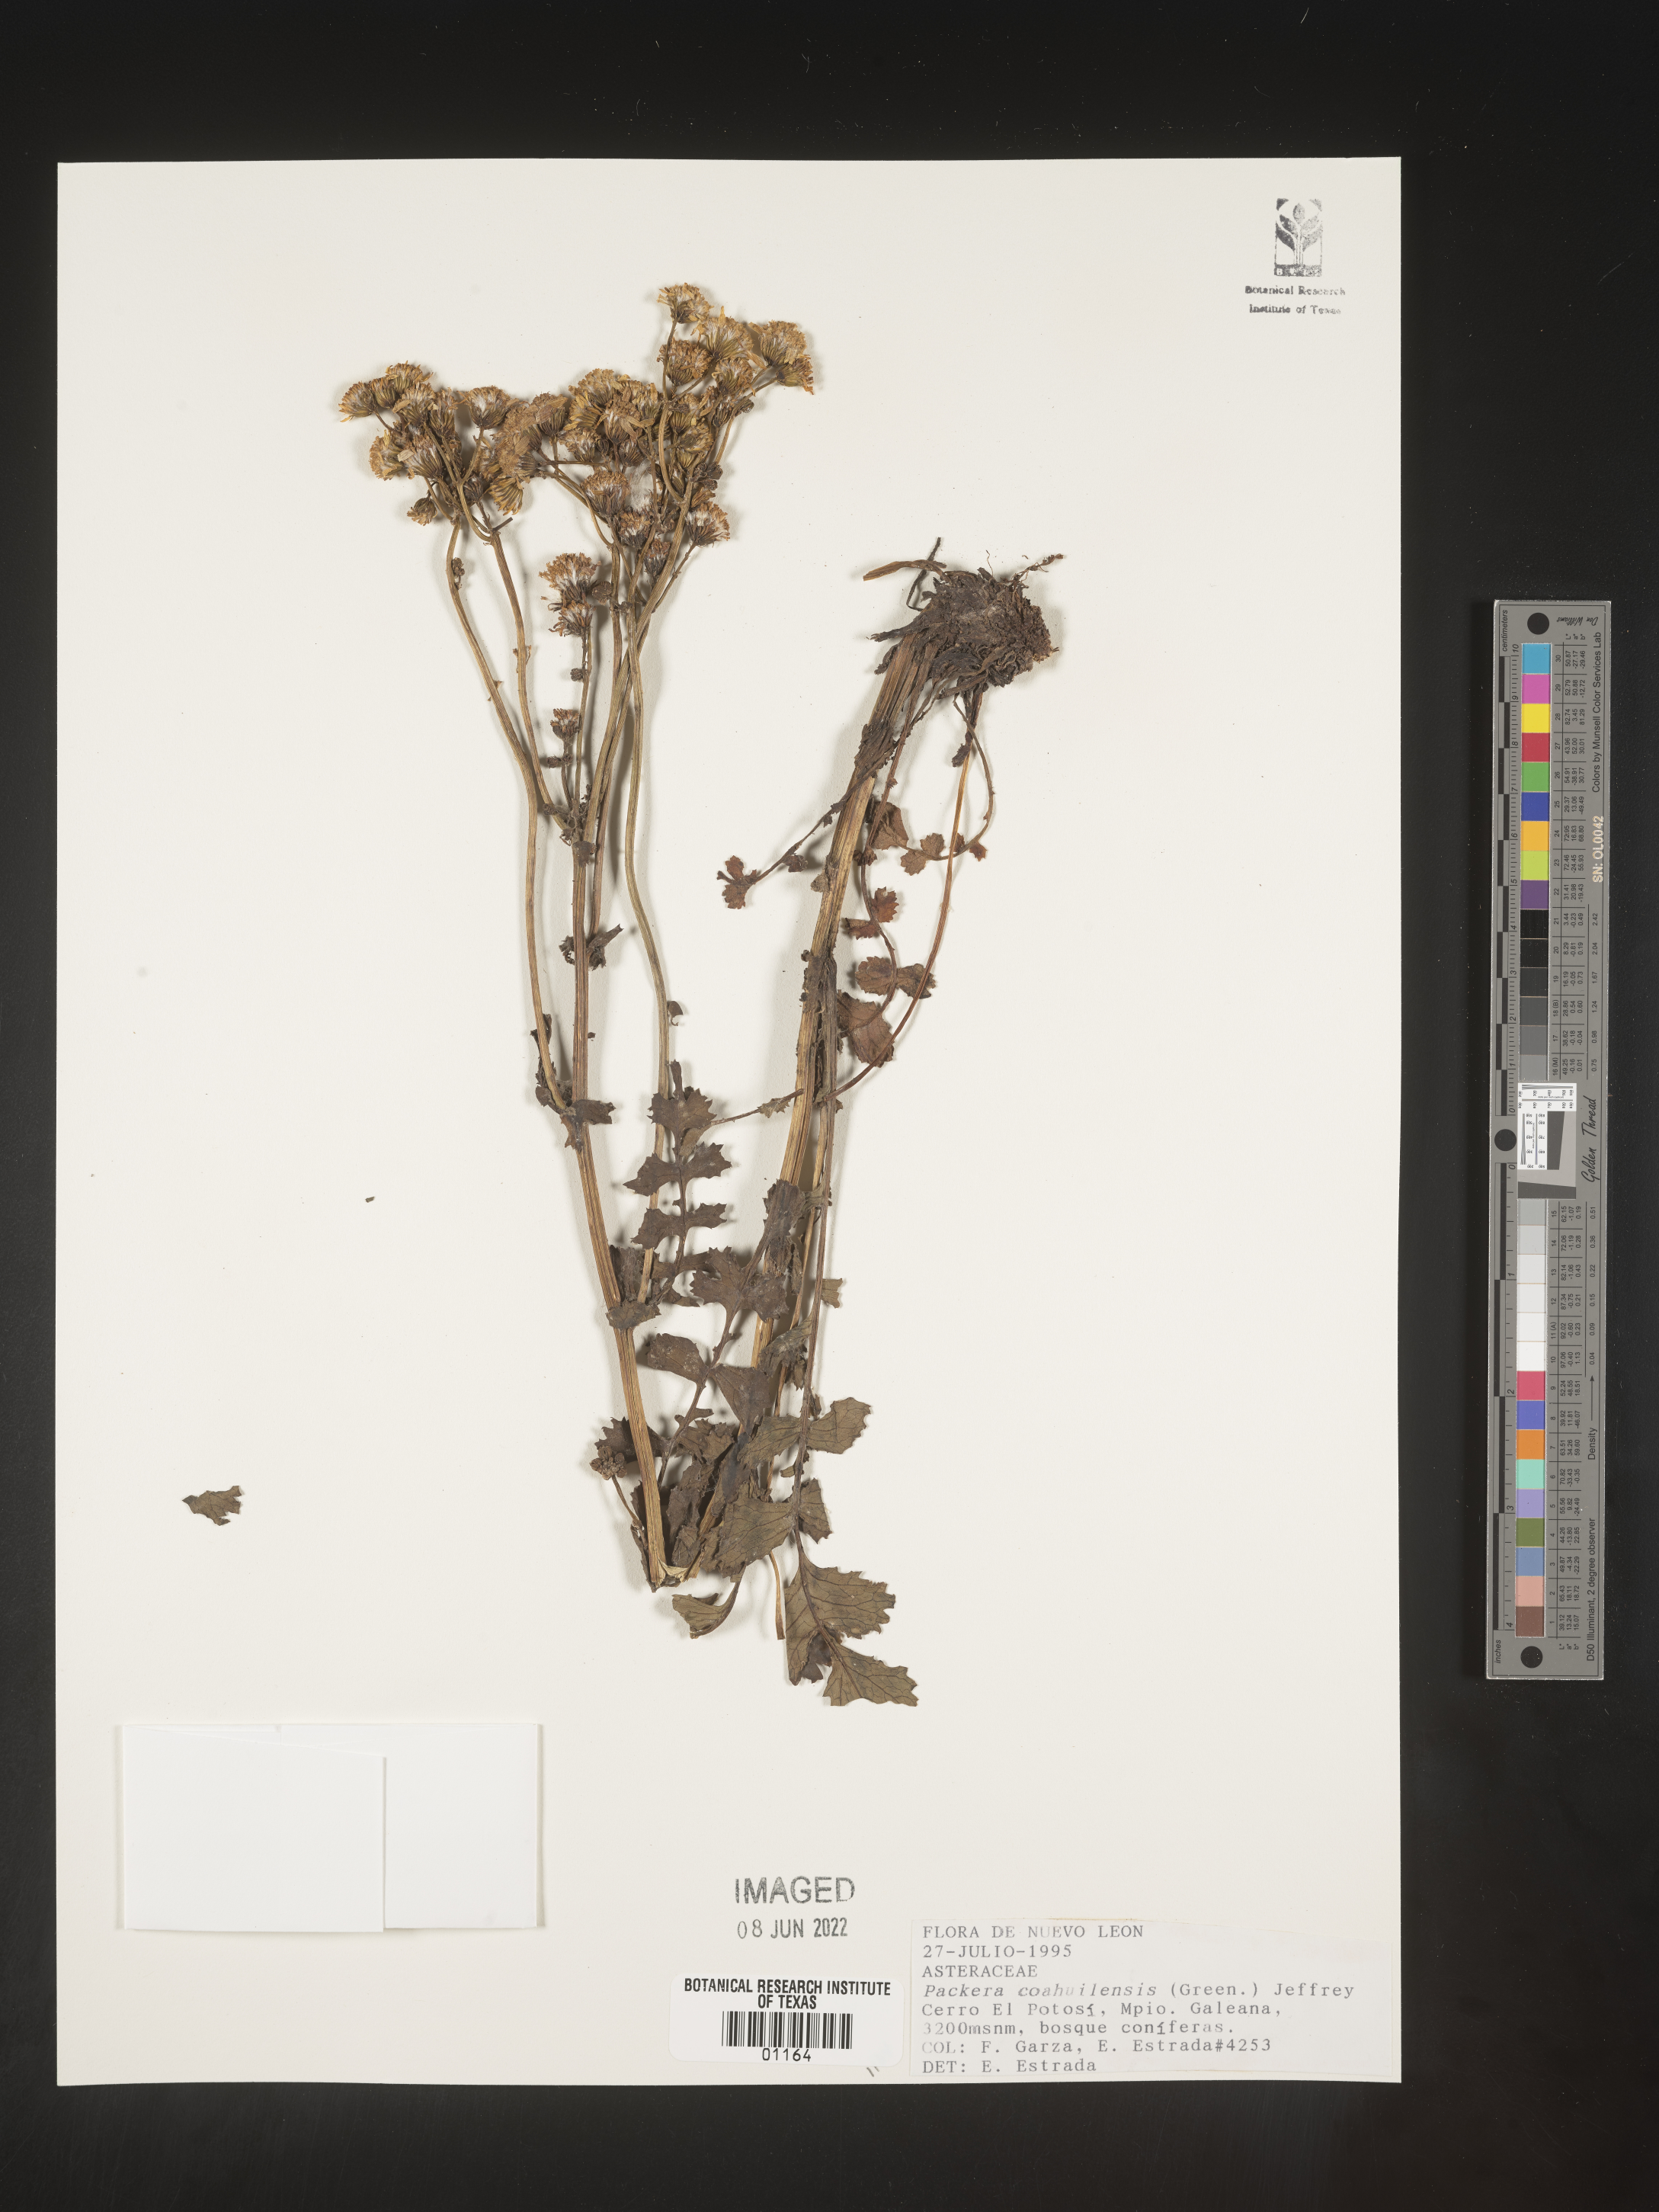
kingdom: Plantae
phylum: Tracheophyta
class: Magnoliopsida
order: Asterales
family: Asteraceae
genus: Packera
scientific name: Packera
